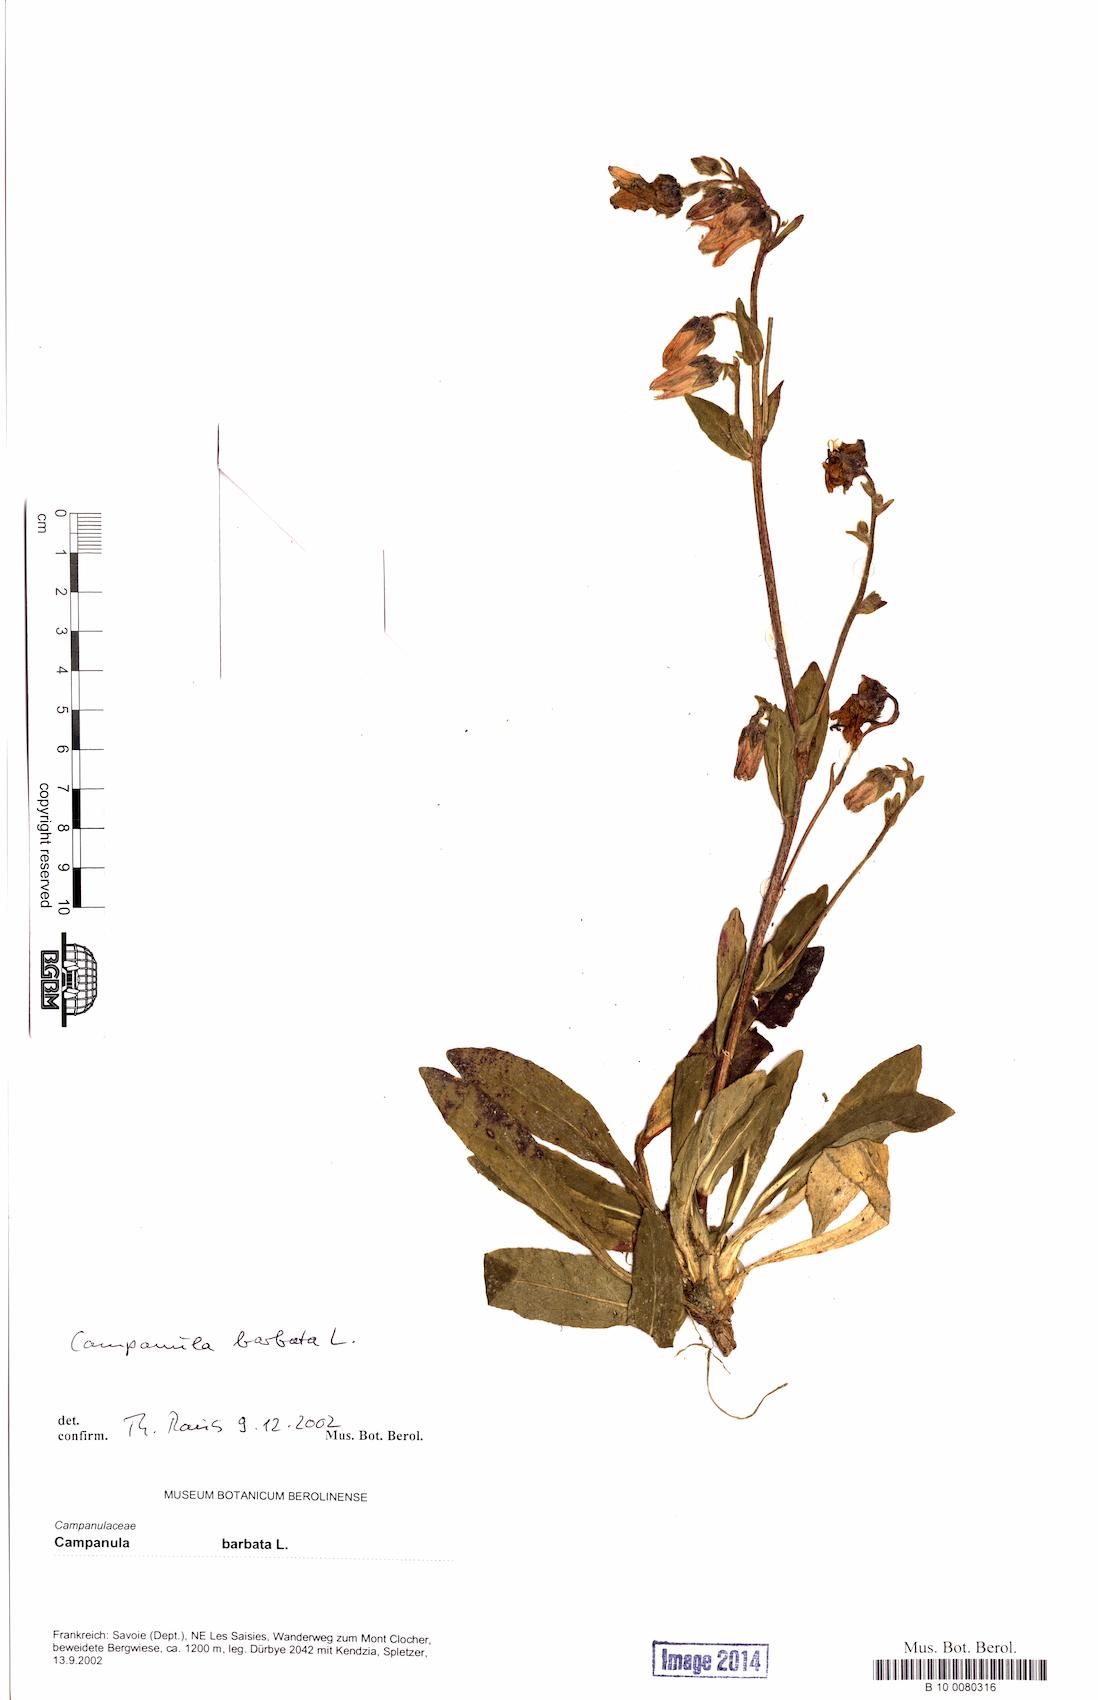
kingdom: Plantae
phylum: Tracheophyta
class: Magnoliopsida
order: Asterales
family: Campanulaceae
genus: Campanula
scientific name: Campanula barbata
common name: Bearded bellflower
